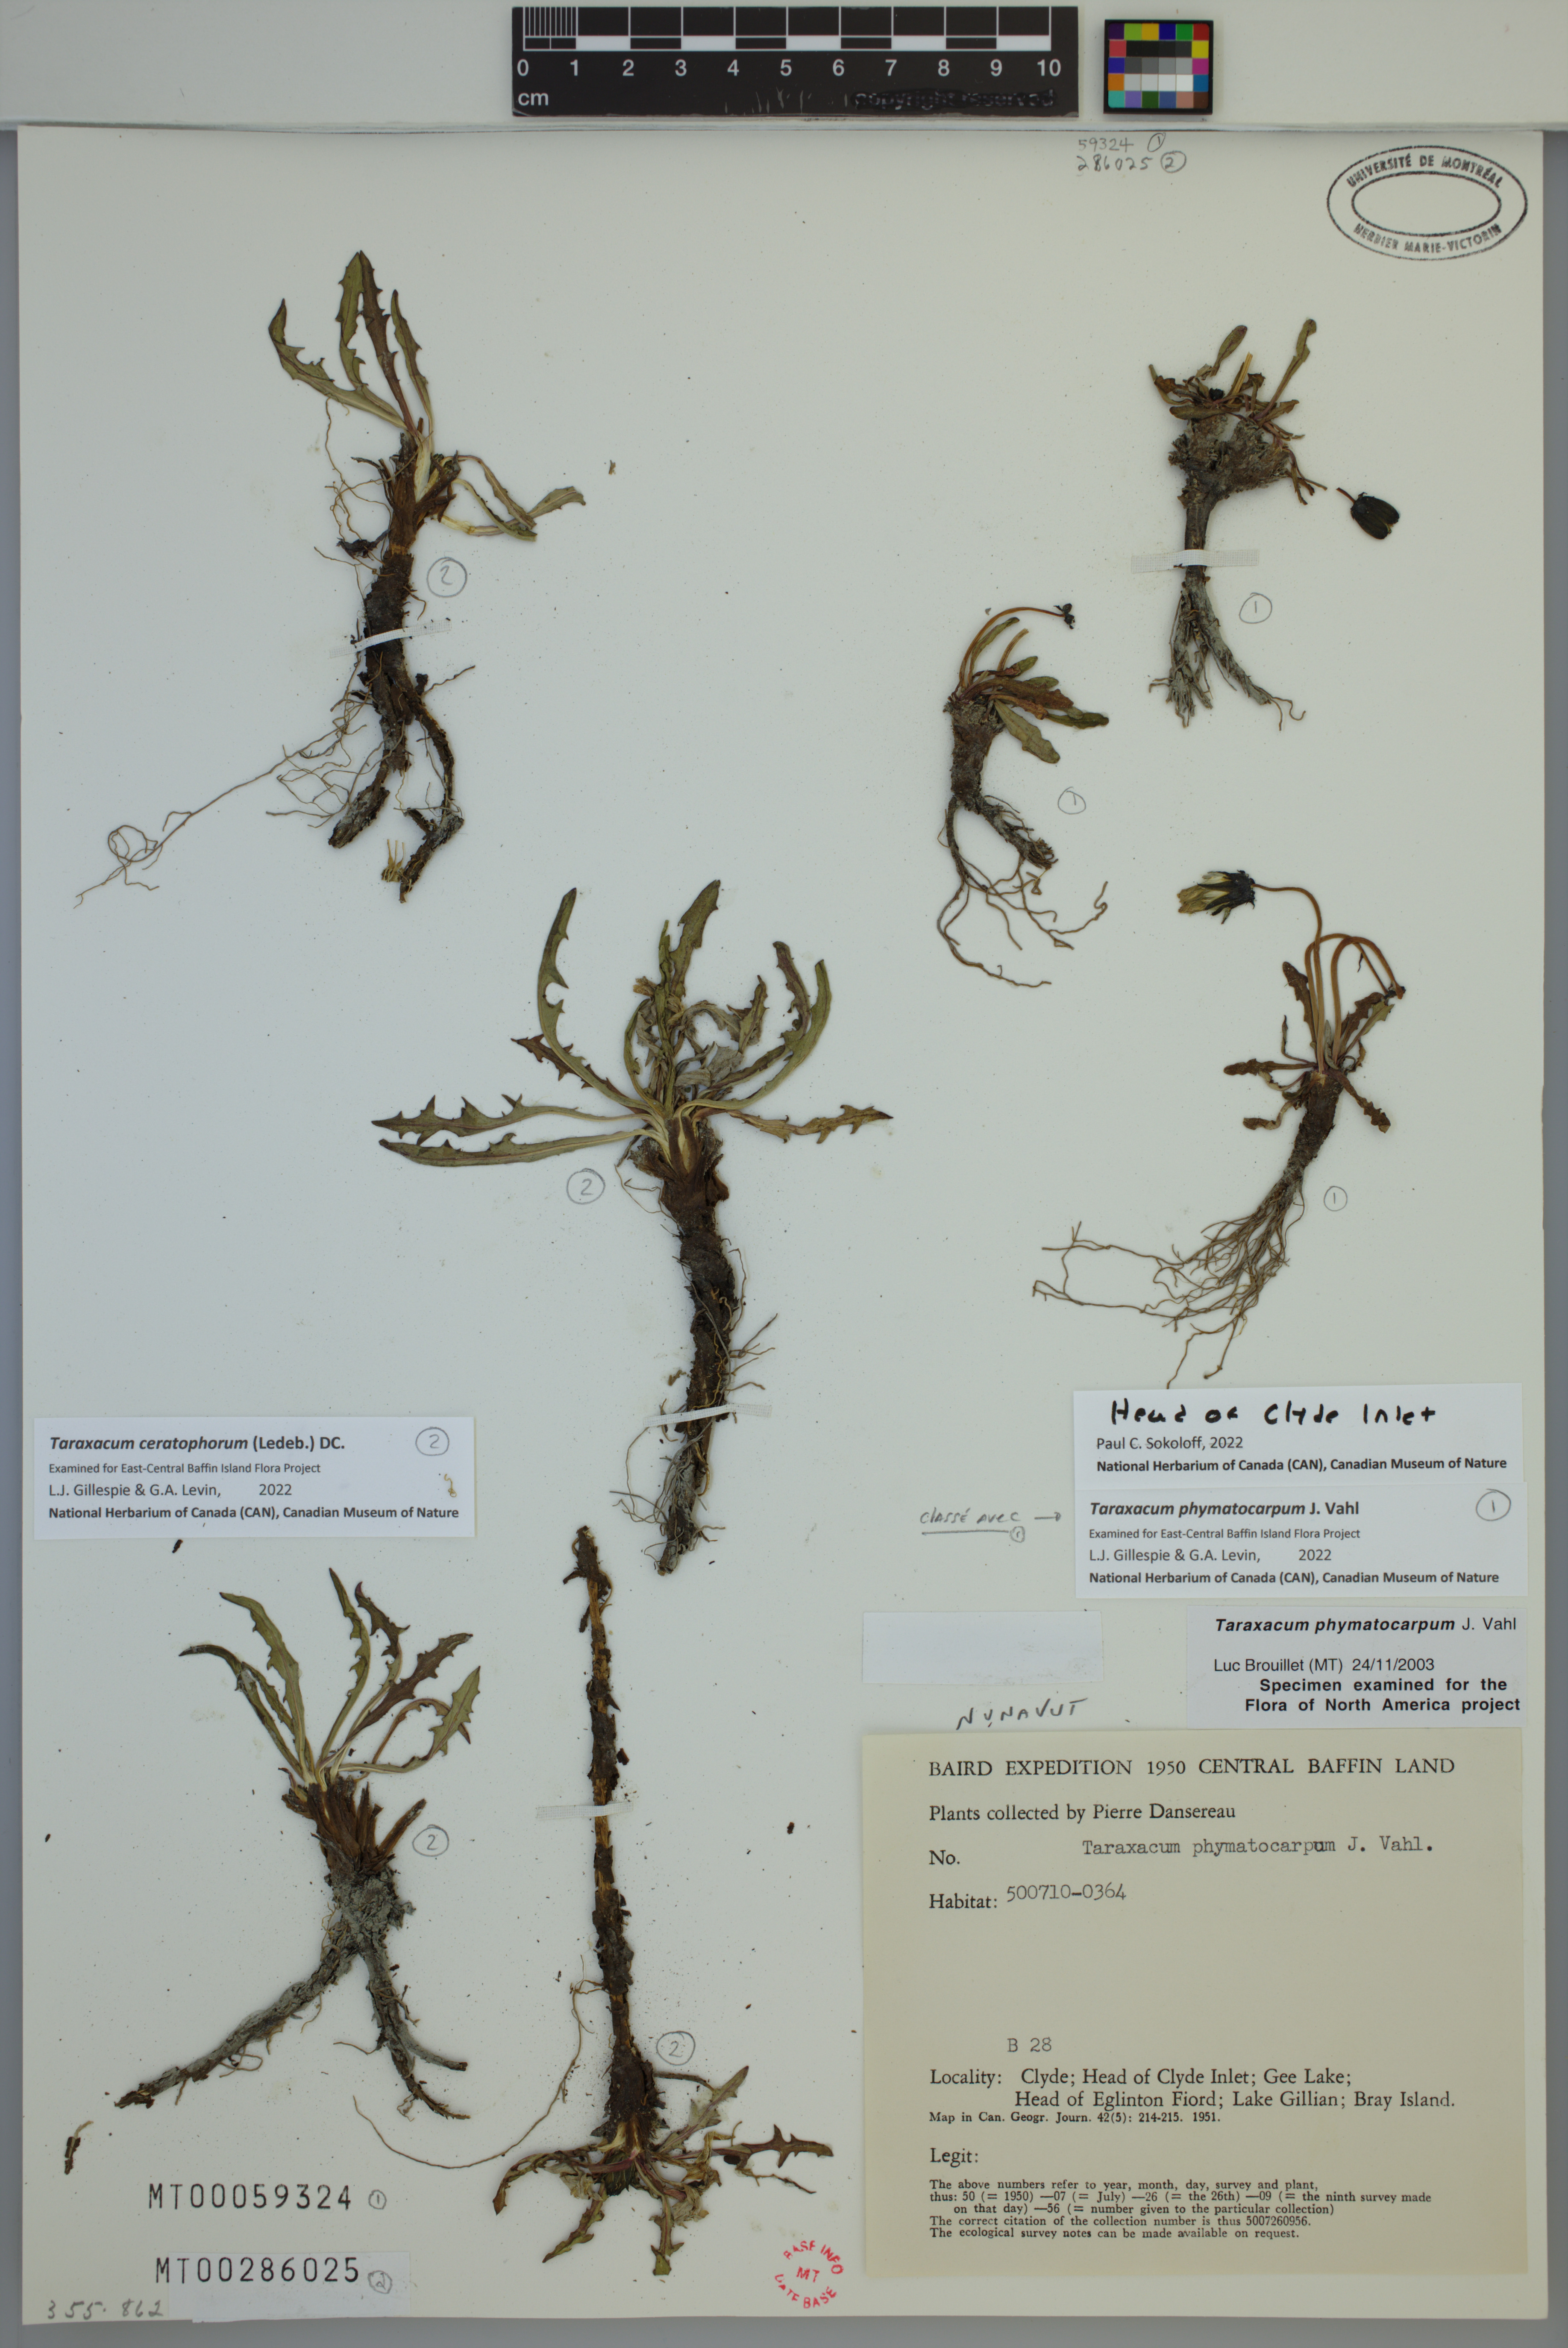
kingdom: Plantae
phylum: Tracheophyta
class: Magnoliopsida
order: Asterales
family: Asteraceae
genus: Taraxacum
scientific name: Taraxacum ceratophorum
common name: Horn-bearing dandelion
